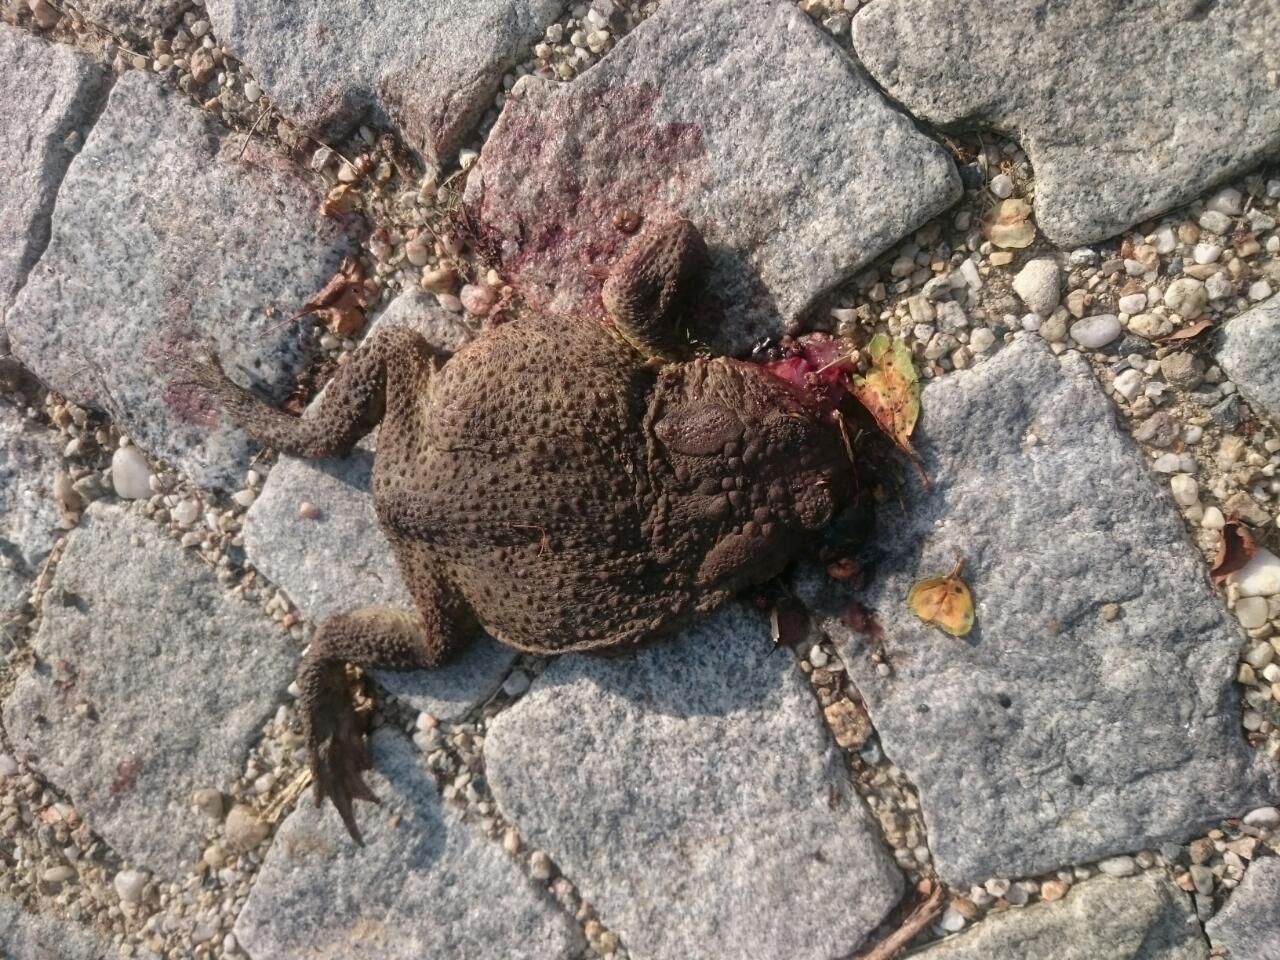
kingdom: Animalia
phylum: Chordata
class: Amphibia
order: Anura
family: Bufonidae
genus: Bufo
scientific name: Bufo bufo
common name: Common toad
